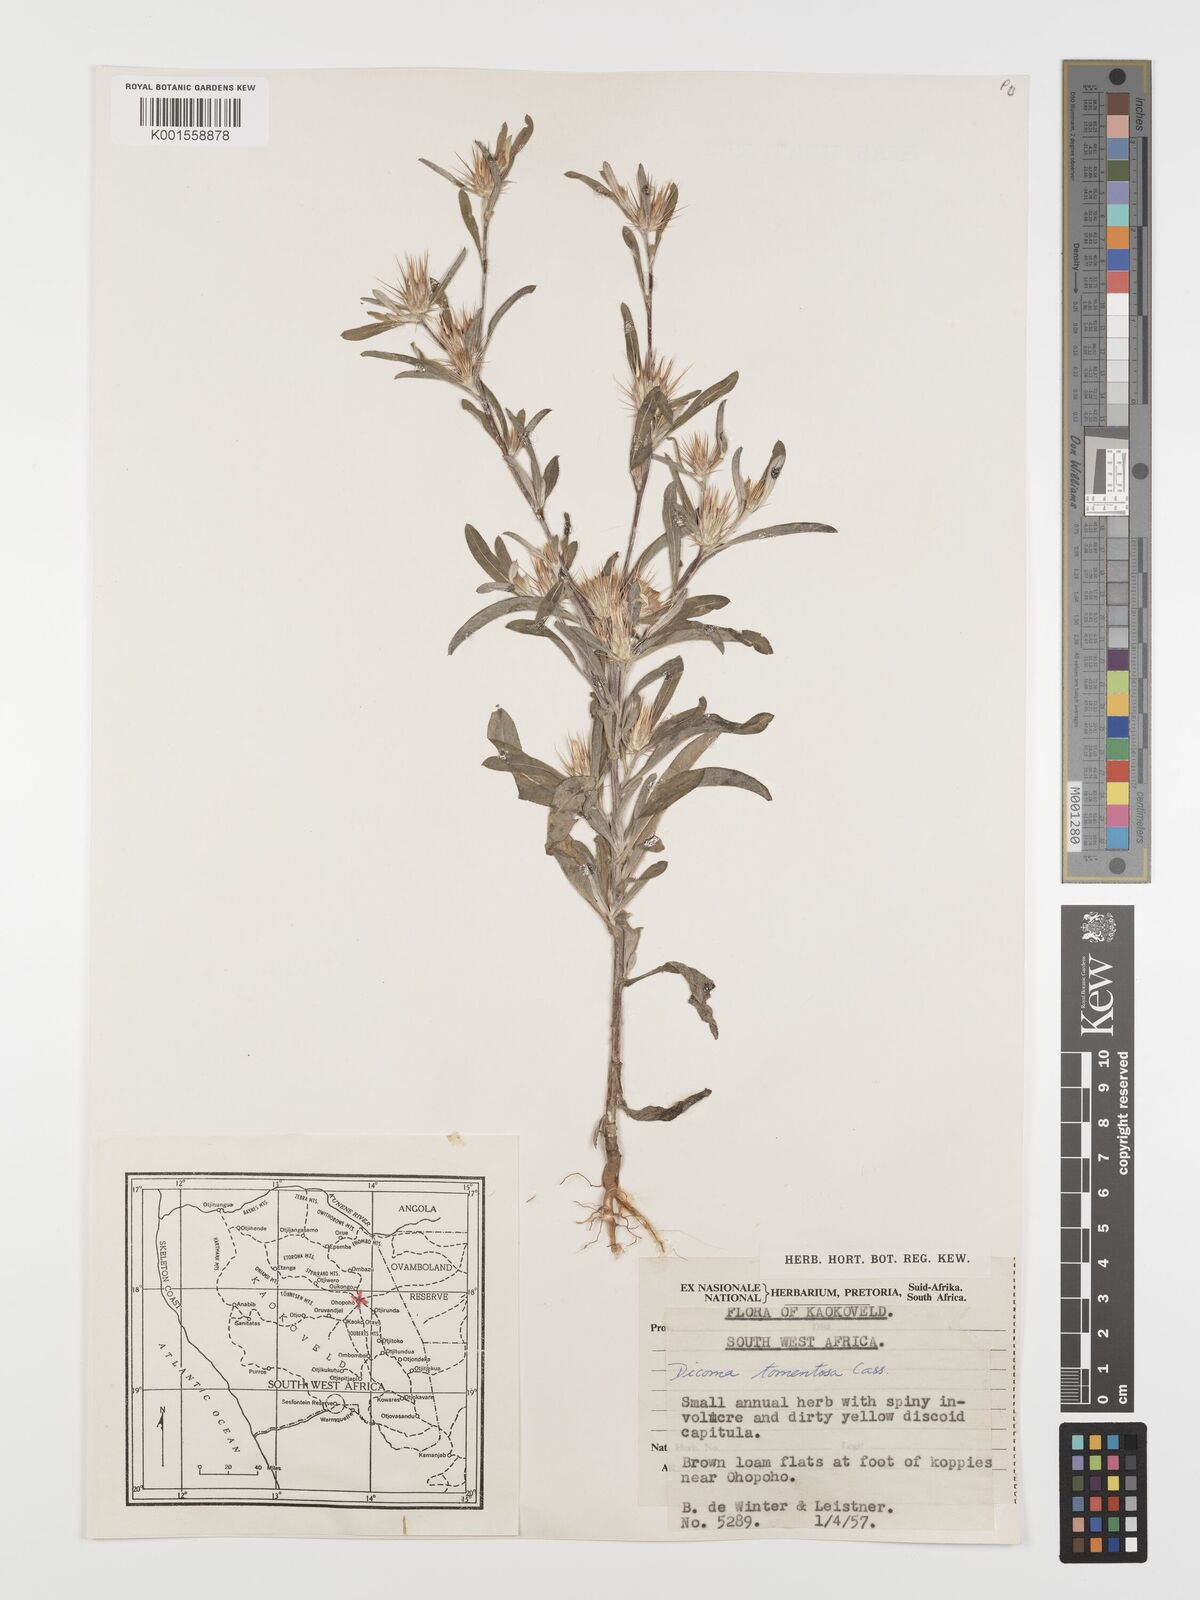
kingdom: Plantae
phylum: Tracheophyta
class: Magnoliopsida
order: Asterales
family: Asteraceae
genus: Dicoma
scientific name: Dicoma tomentosa
